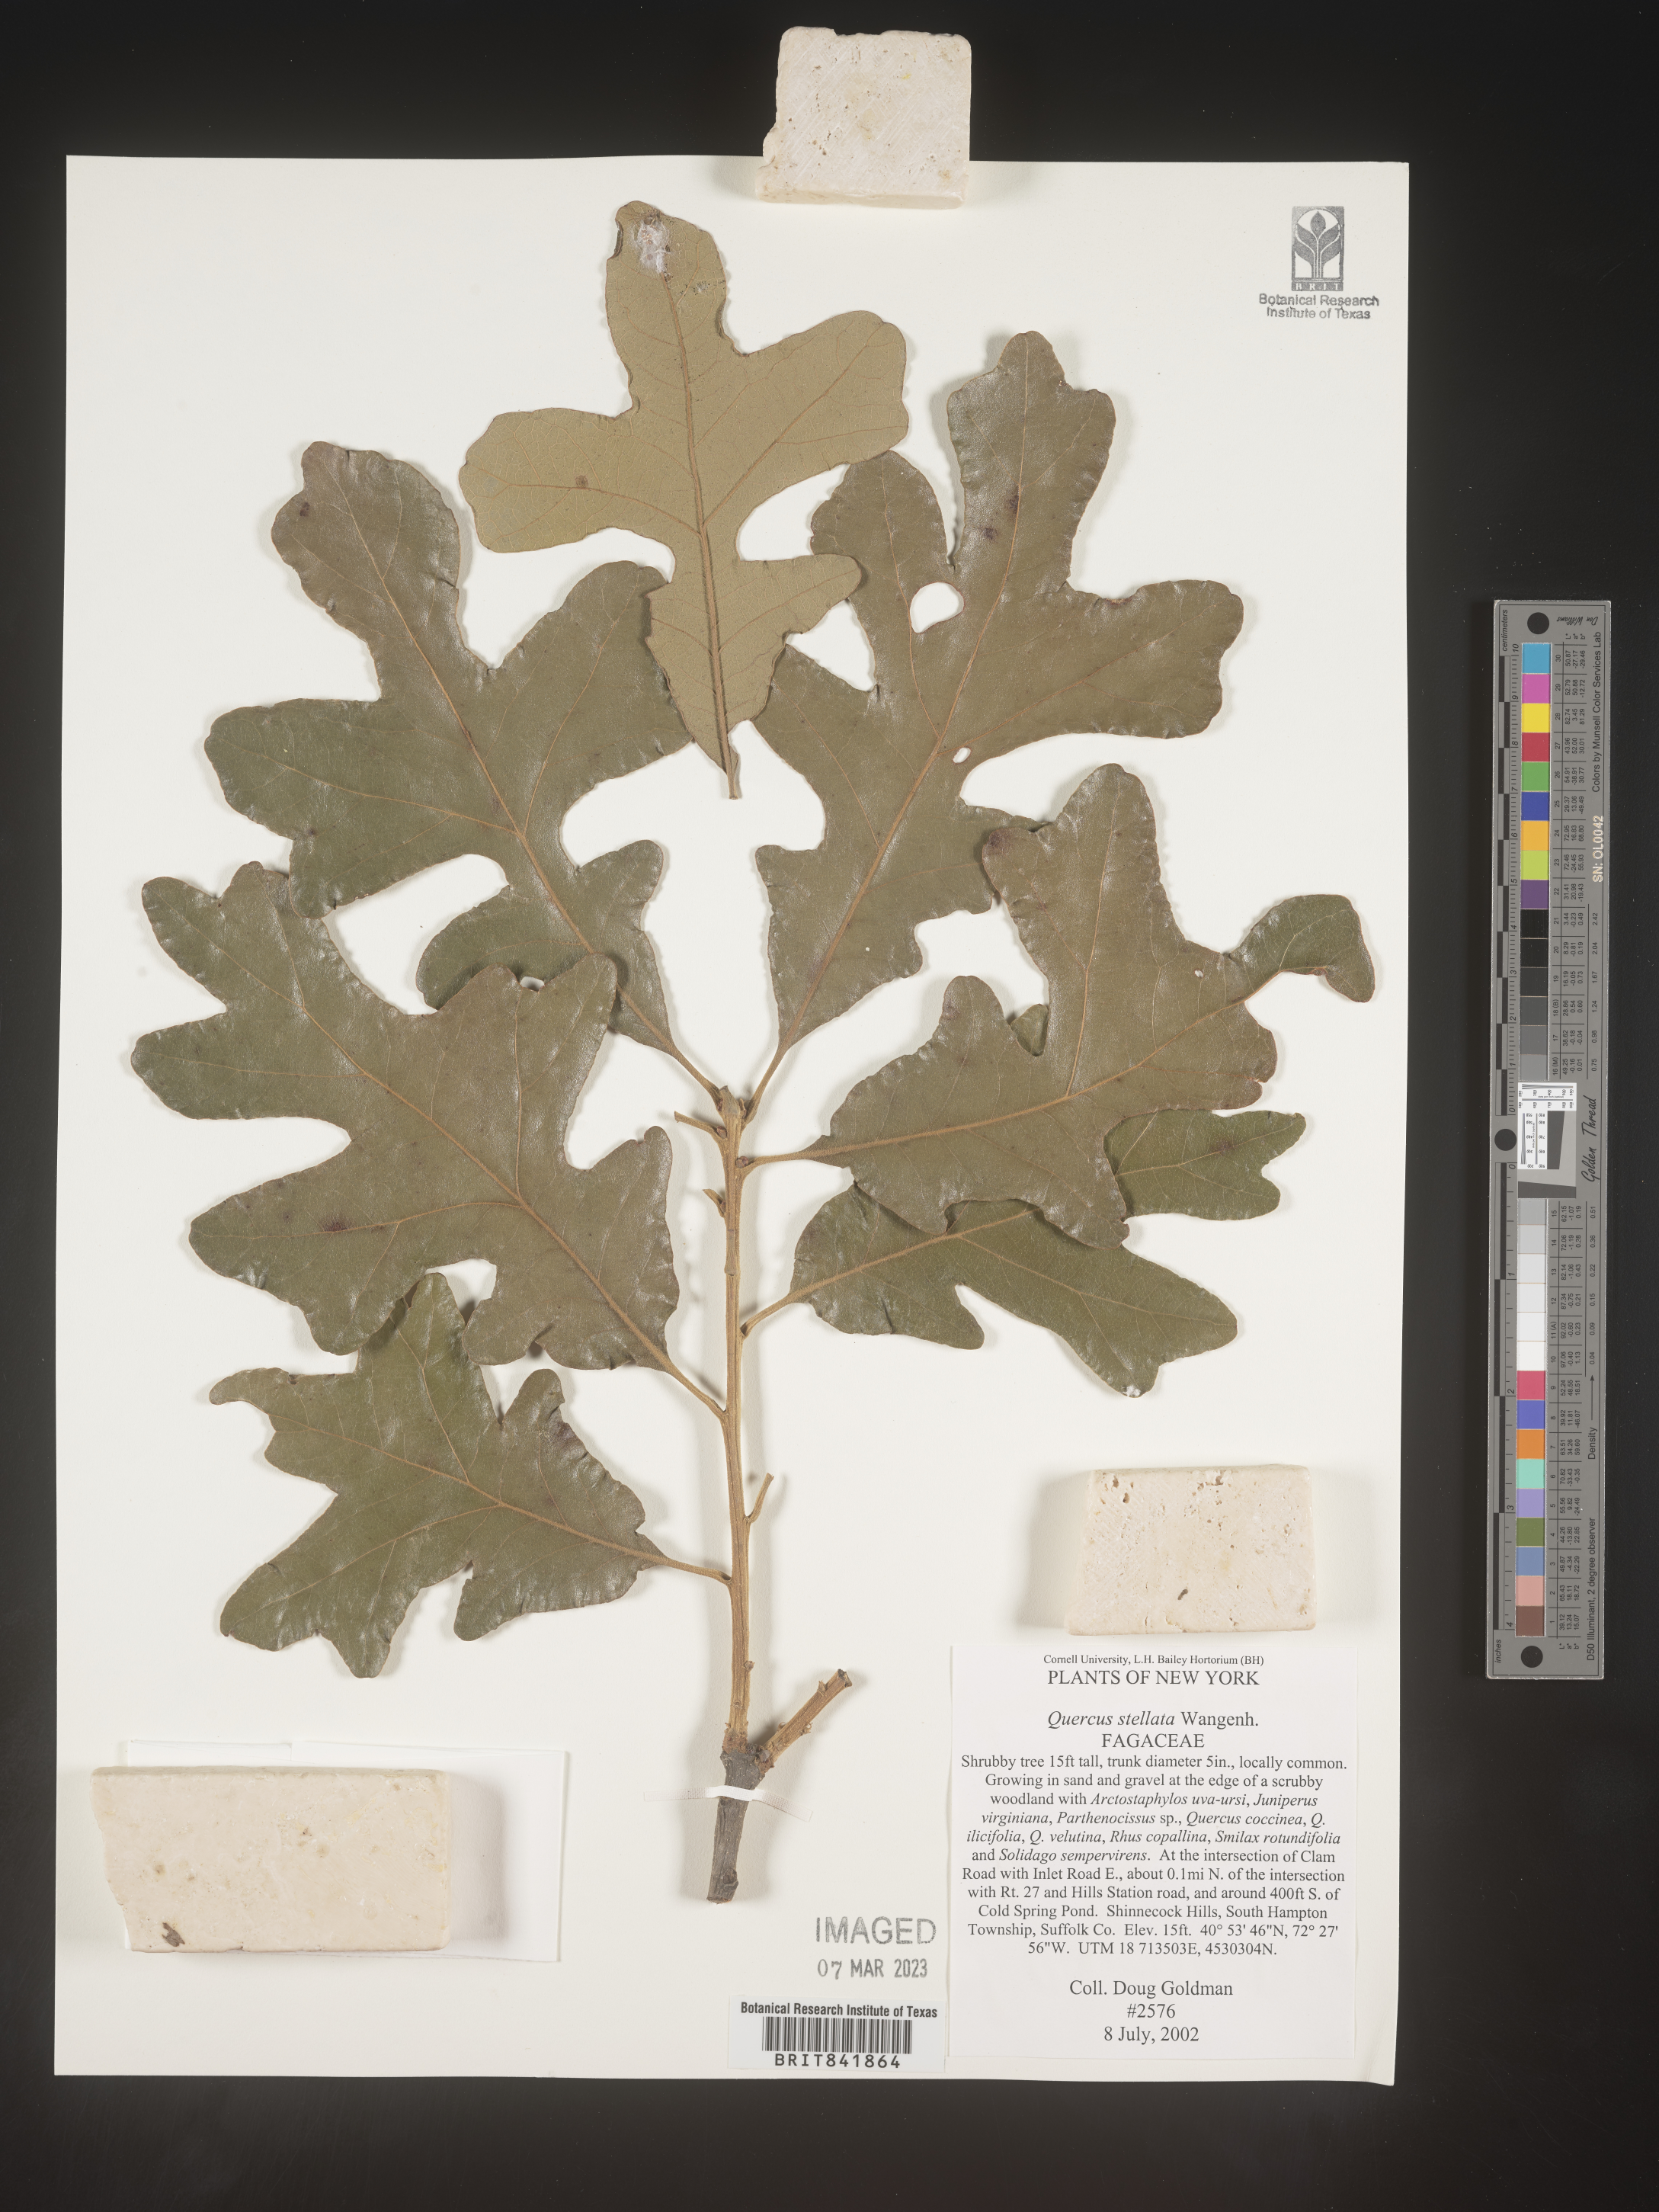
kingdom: Plantae
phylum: Tracheophyta
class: Magnoliopsida
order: Fagales
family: Fagaceae
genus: Quercus
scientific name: Quercus stellata
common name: Post oak
